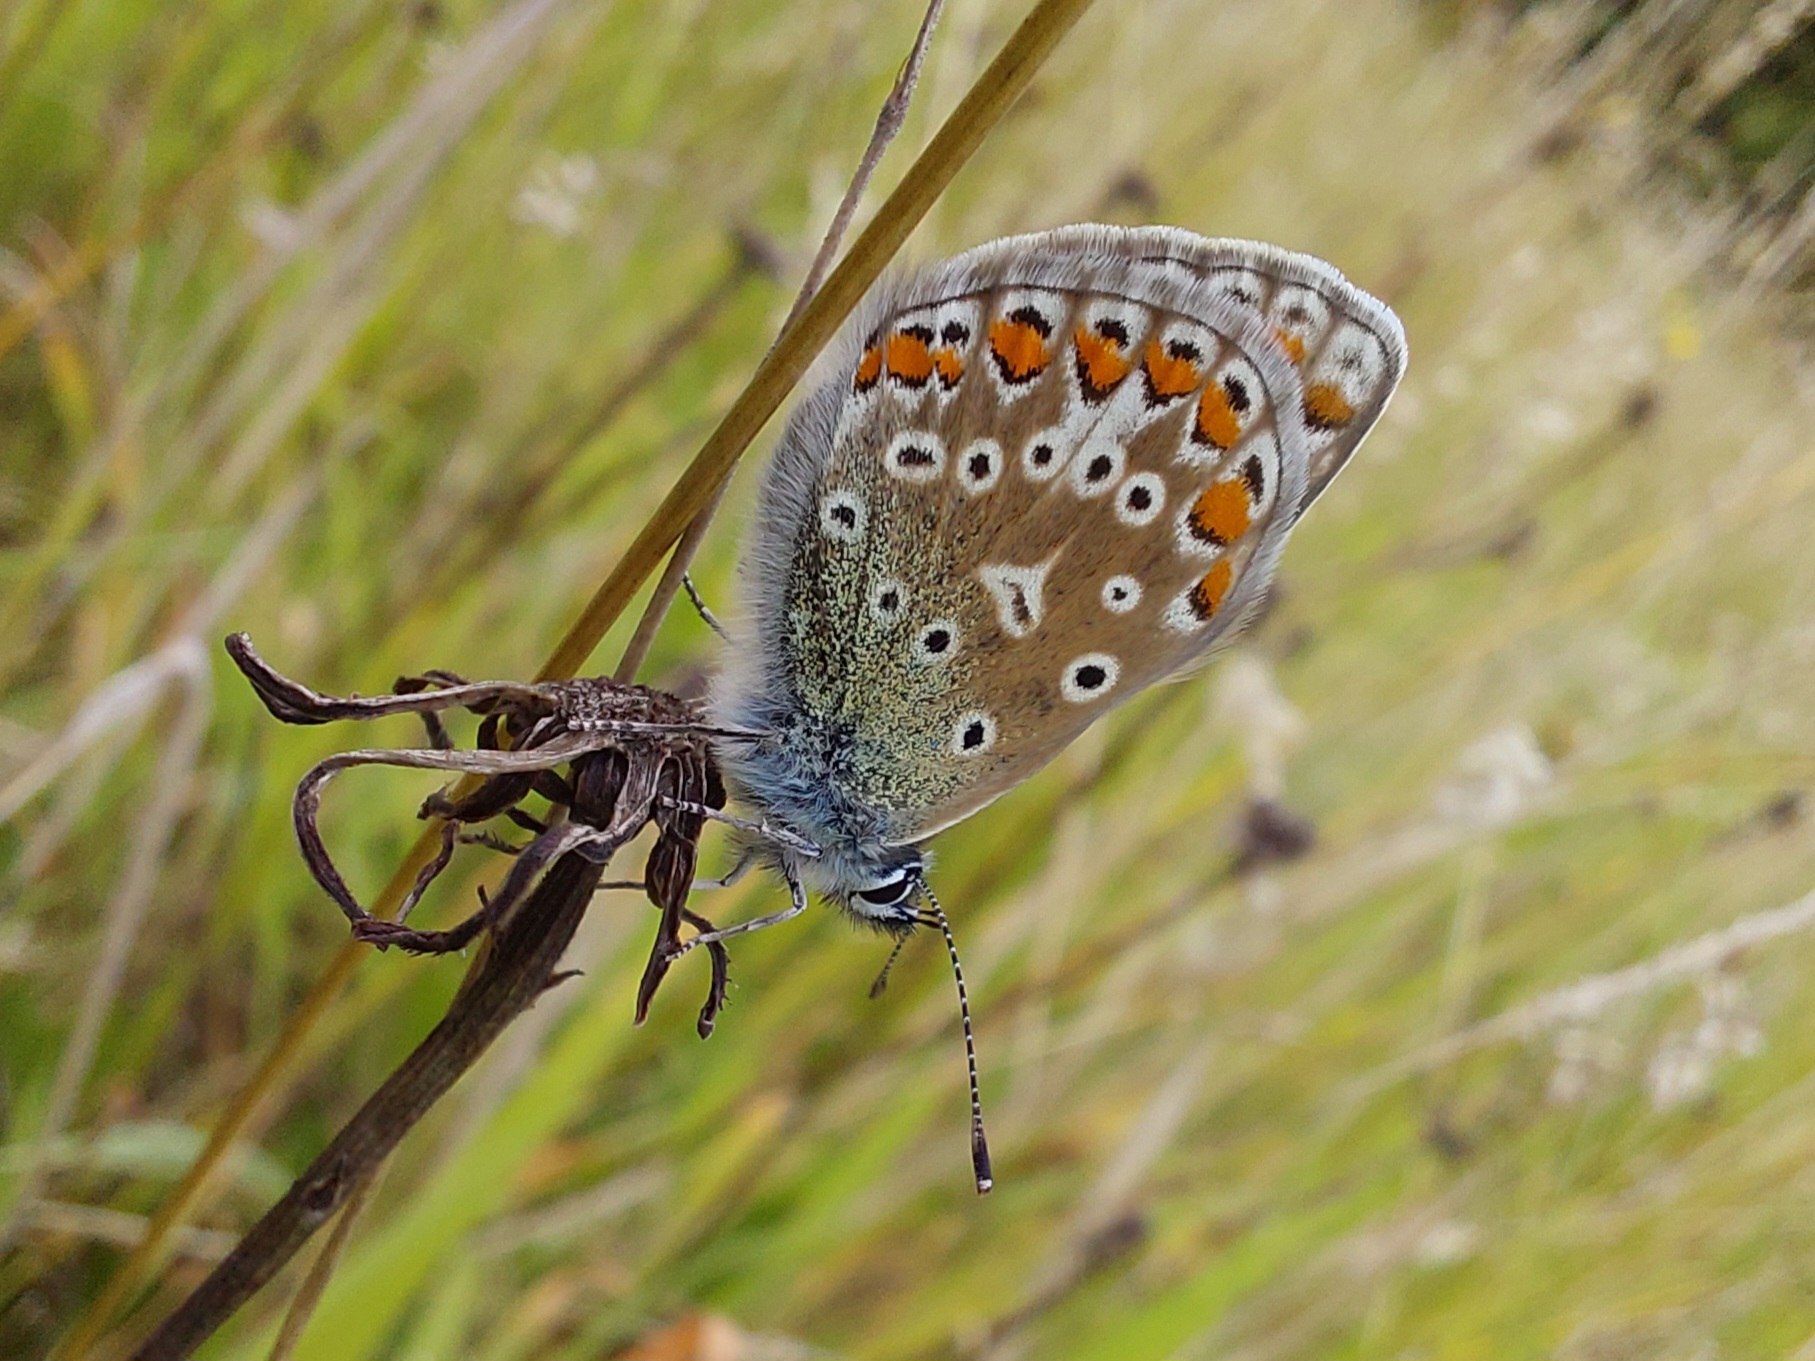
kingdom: Animalia
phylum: Arthropoda
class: Insecta
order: Lepidoptera
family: Lycaenidae
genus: Polyommatus
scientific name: Polyommatus icarus
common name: Almindelig blåfugl
